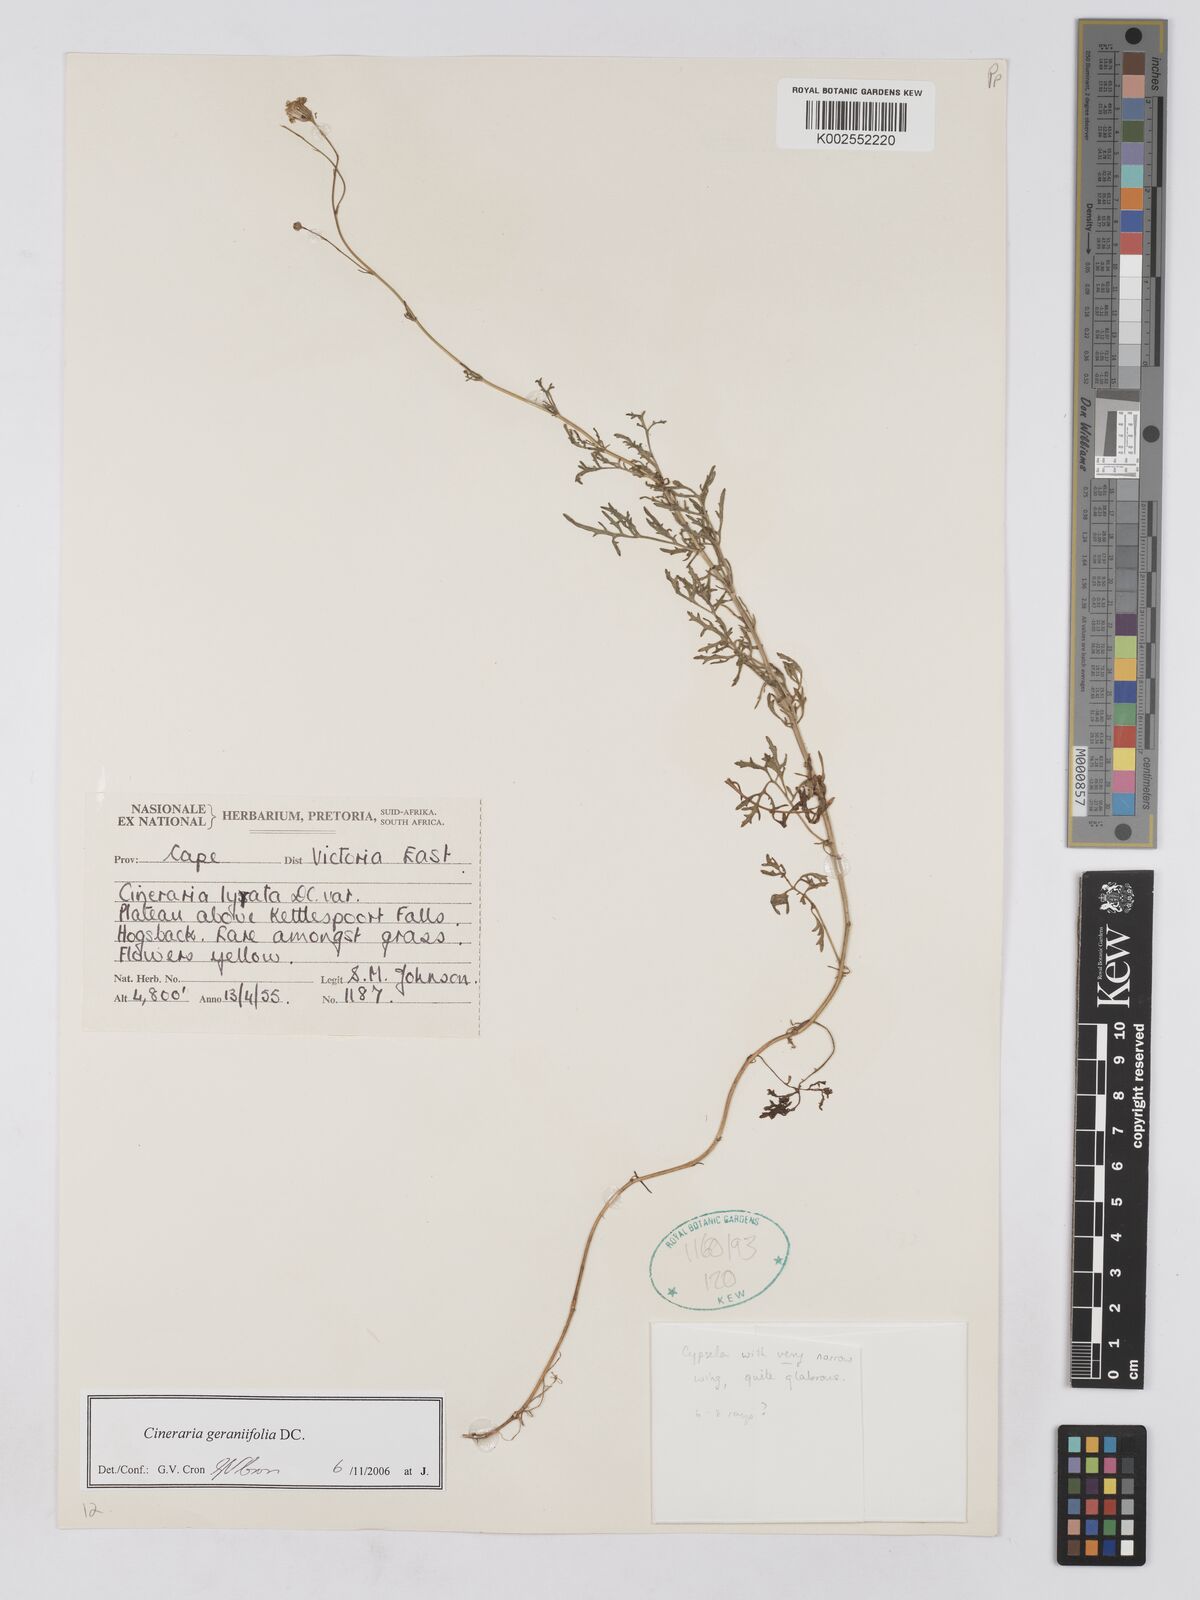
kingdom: Plantae
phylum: Tracheophyta
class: Magnoliopsida
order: Asterales
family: Asteraceae
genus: Cineraria
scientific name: Cineraria geraniifolia
